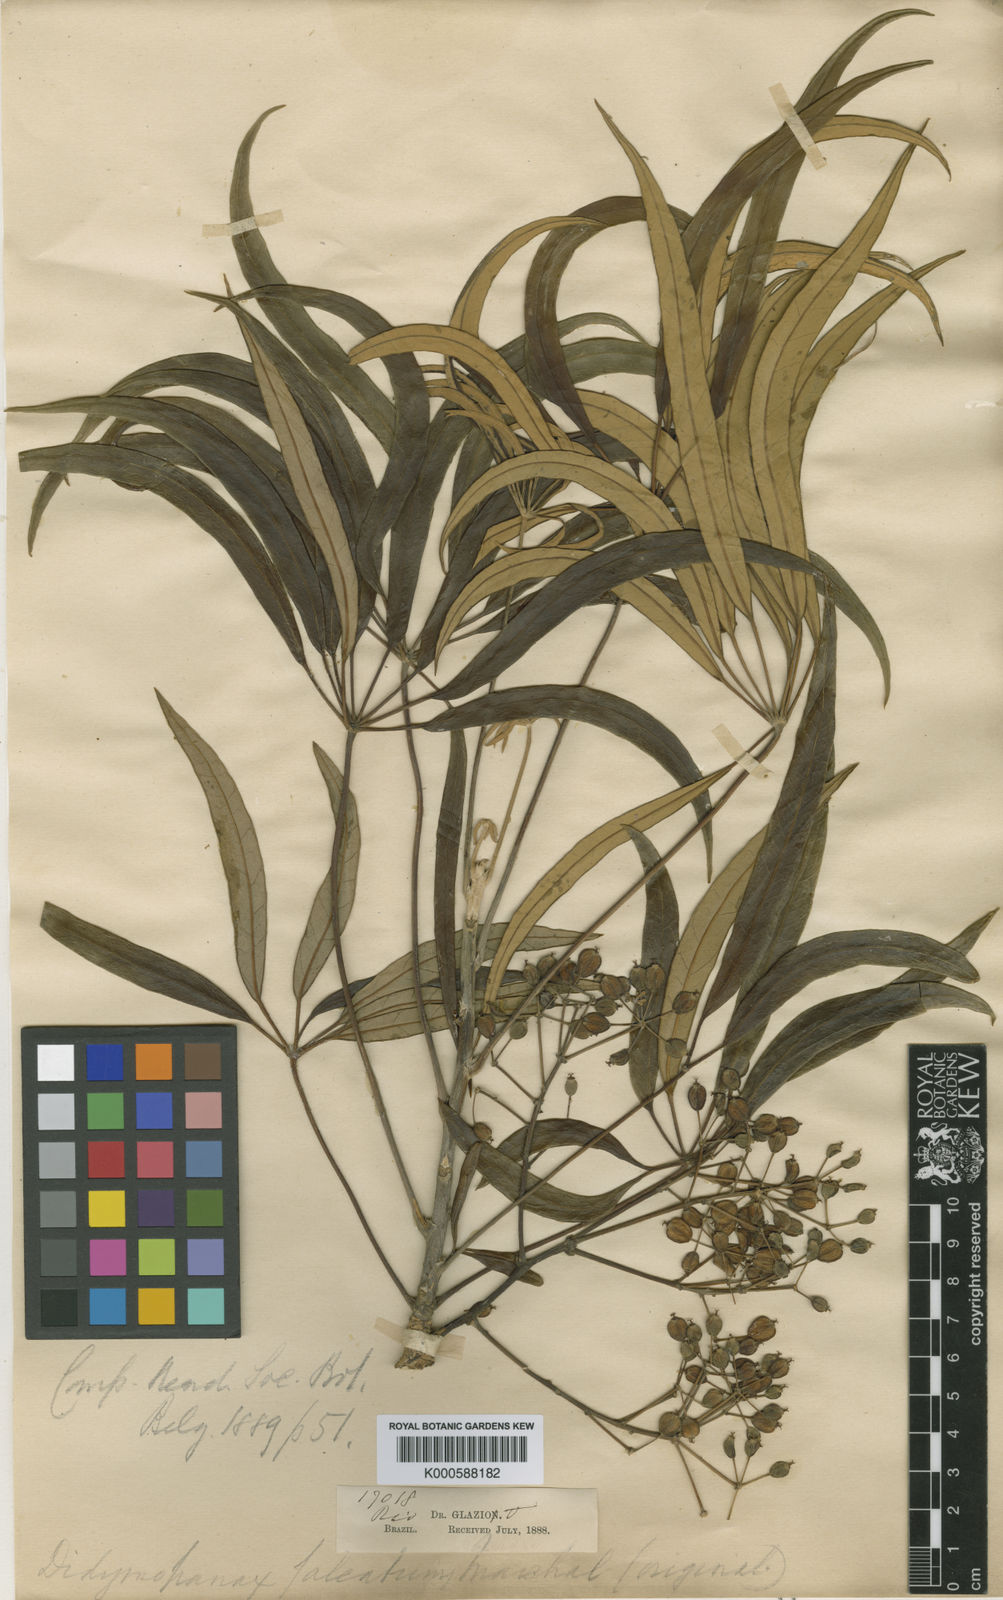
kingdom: Plantae
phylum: Tracheophyta
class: Magnoliopsida
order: Apiales
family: Araliaceae
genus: Heptapleurum
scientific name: Heptapleurum pagiophyllum
